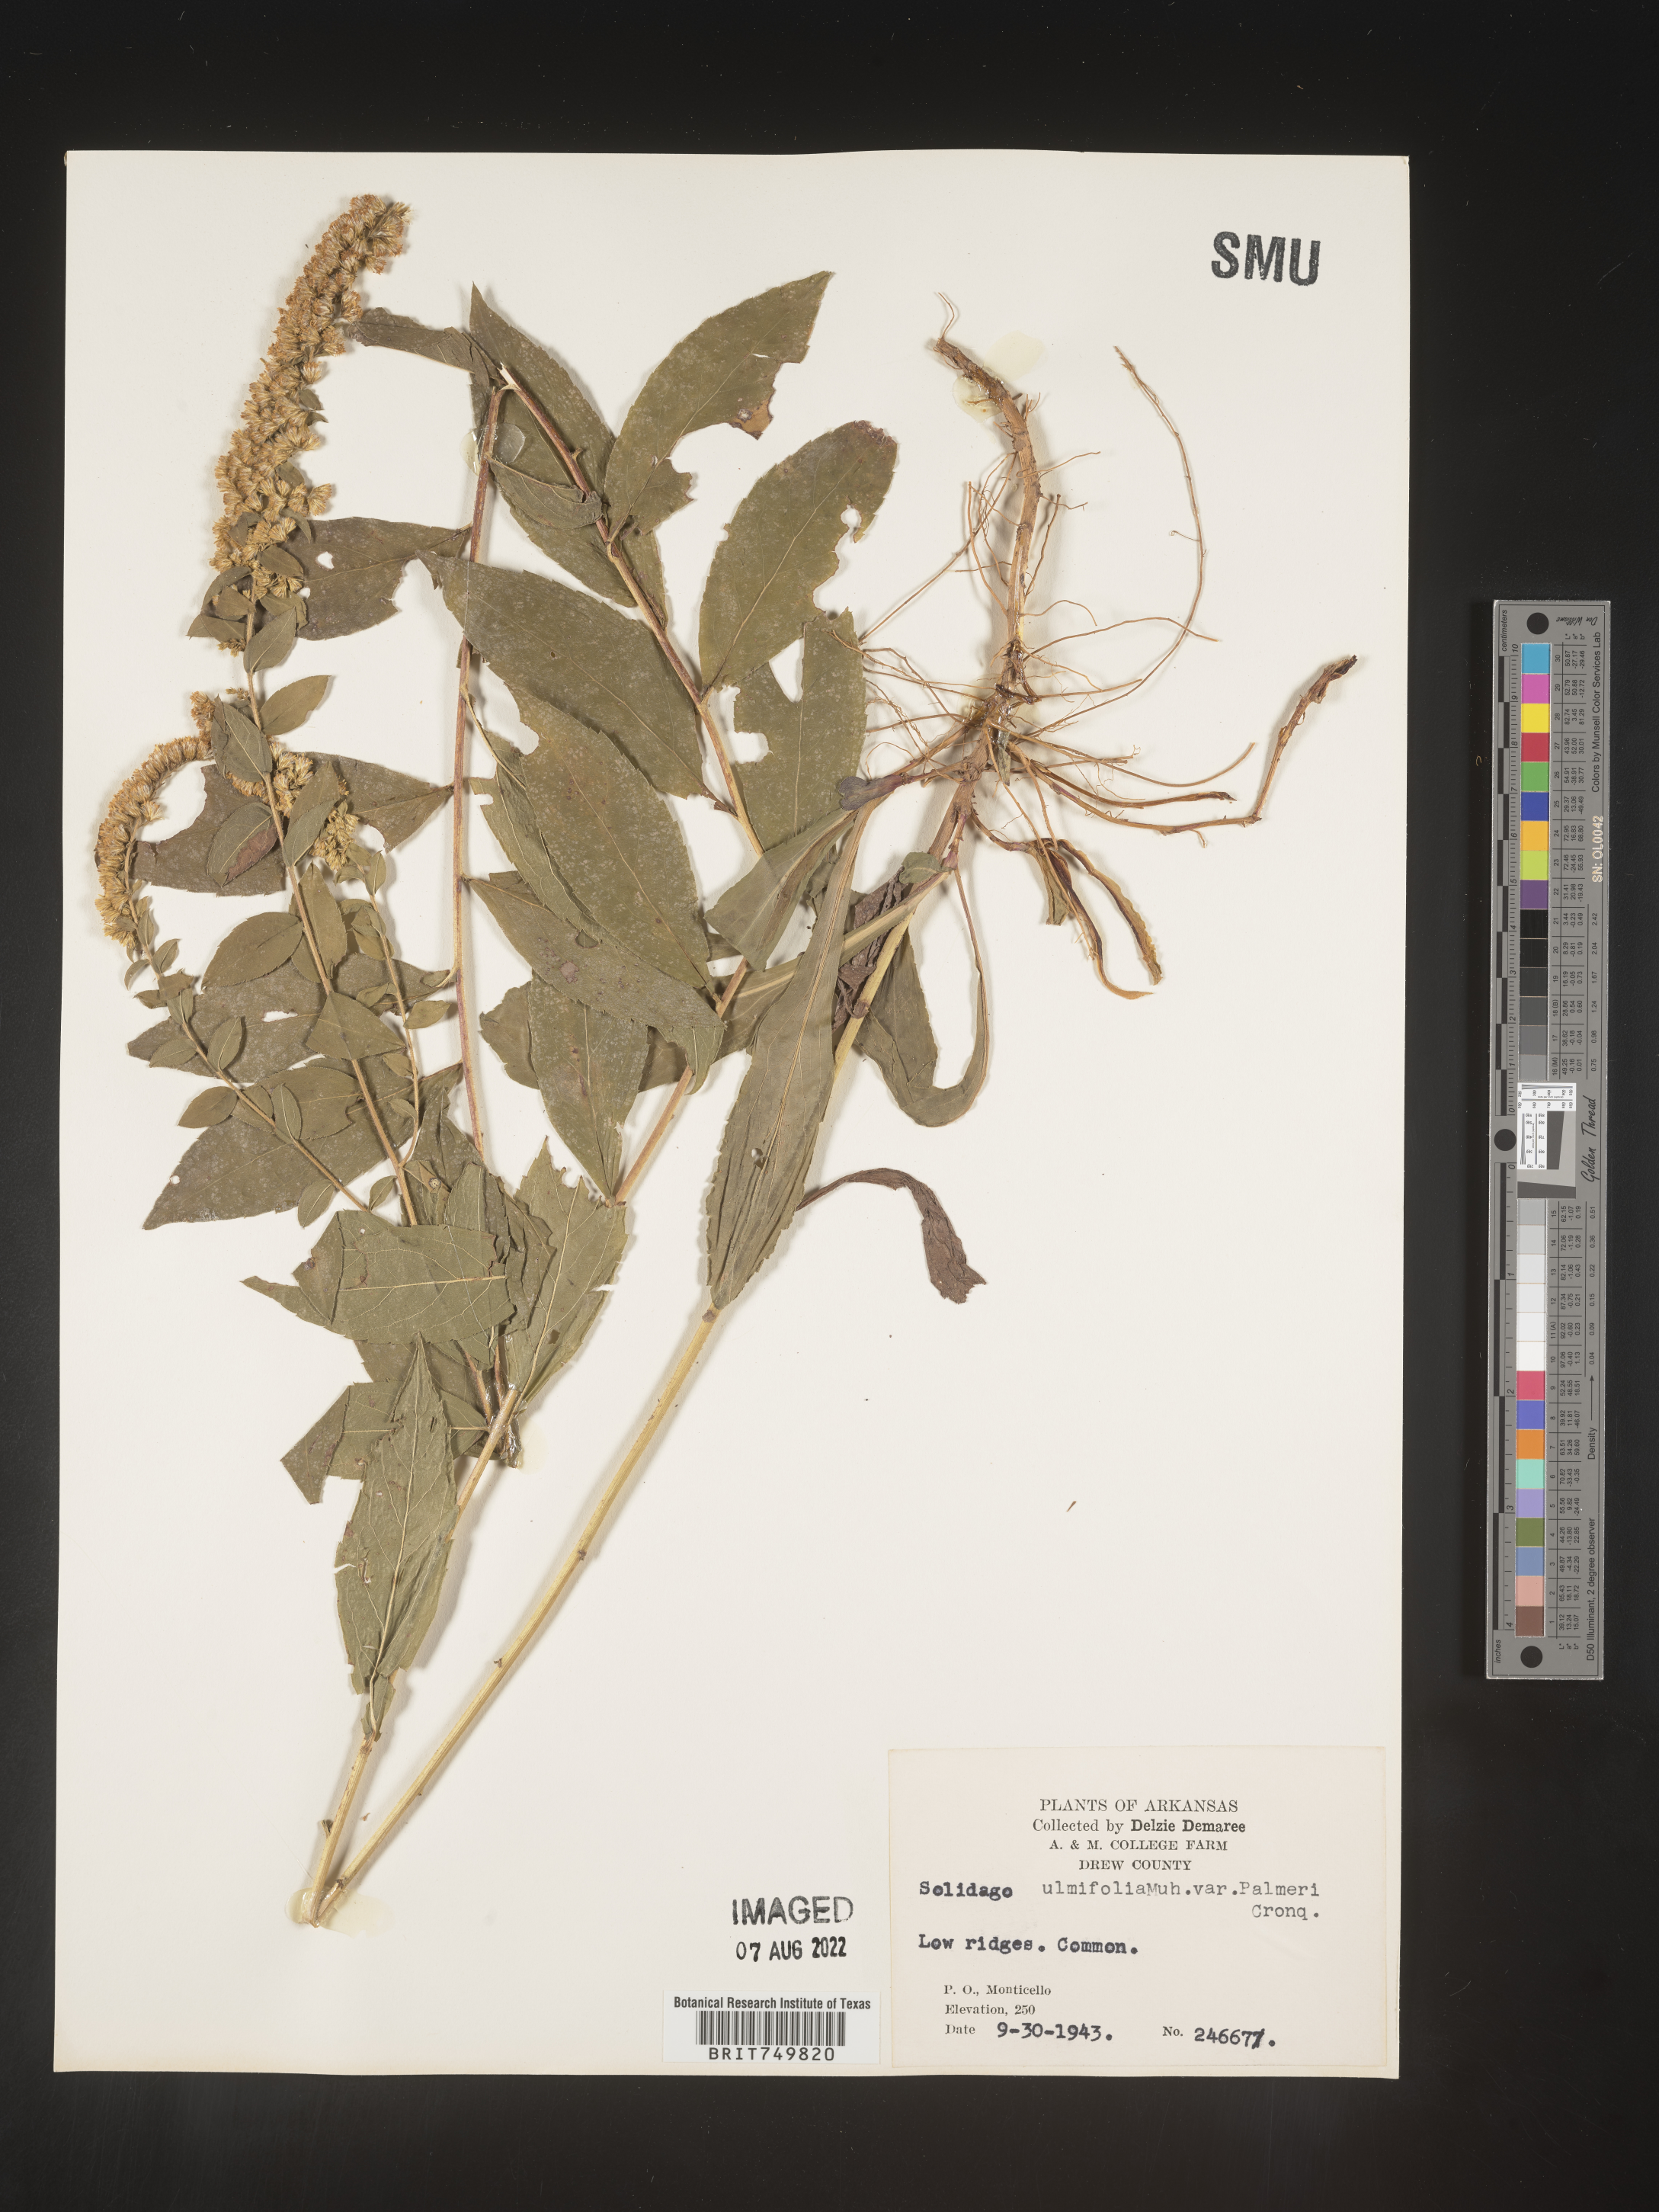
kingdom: Plantae
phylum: Tracheophyta
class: Magnoliopsida
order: Asterales
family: Asteraceae
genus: Solidago
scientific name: Solidago ulmifolia
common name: Elm-leaf goldenrod
